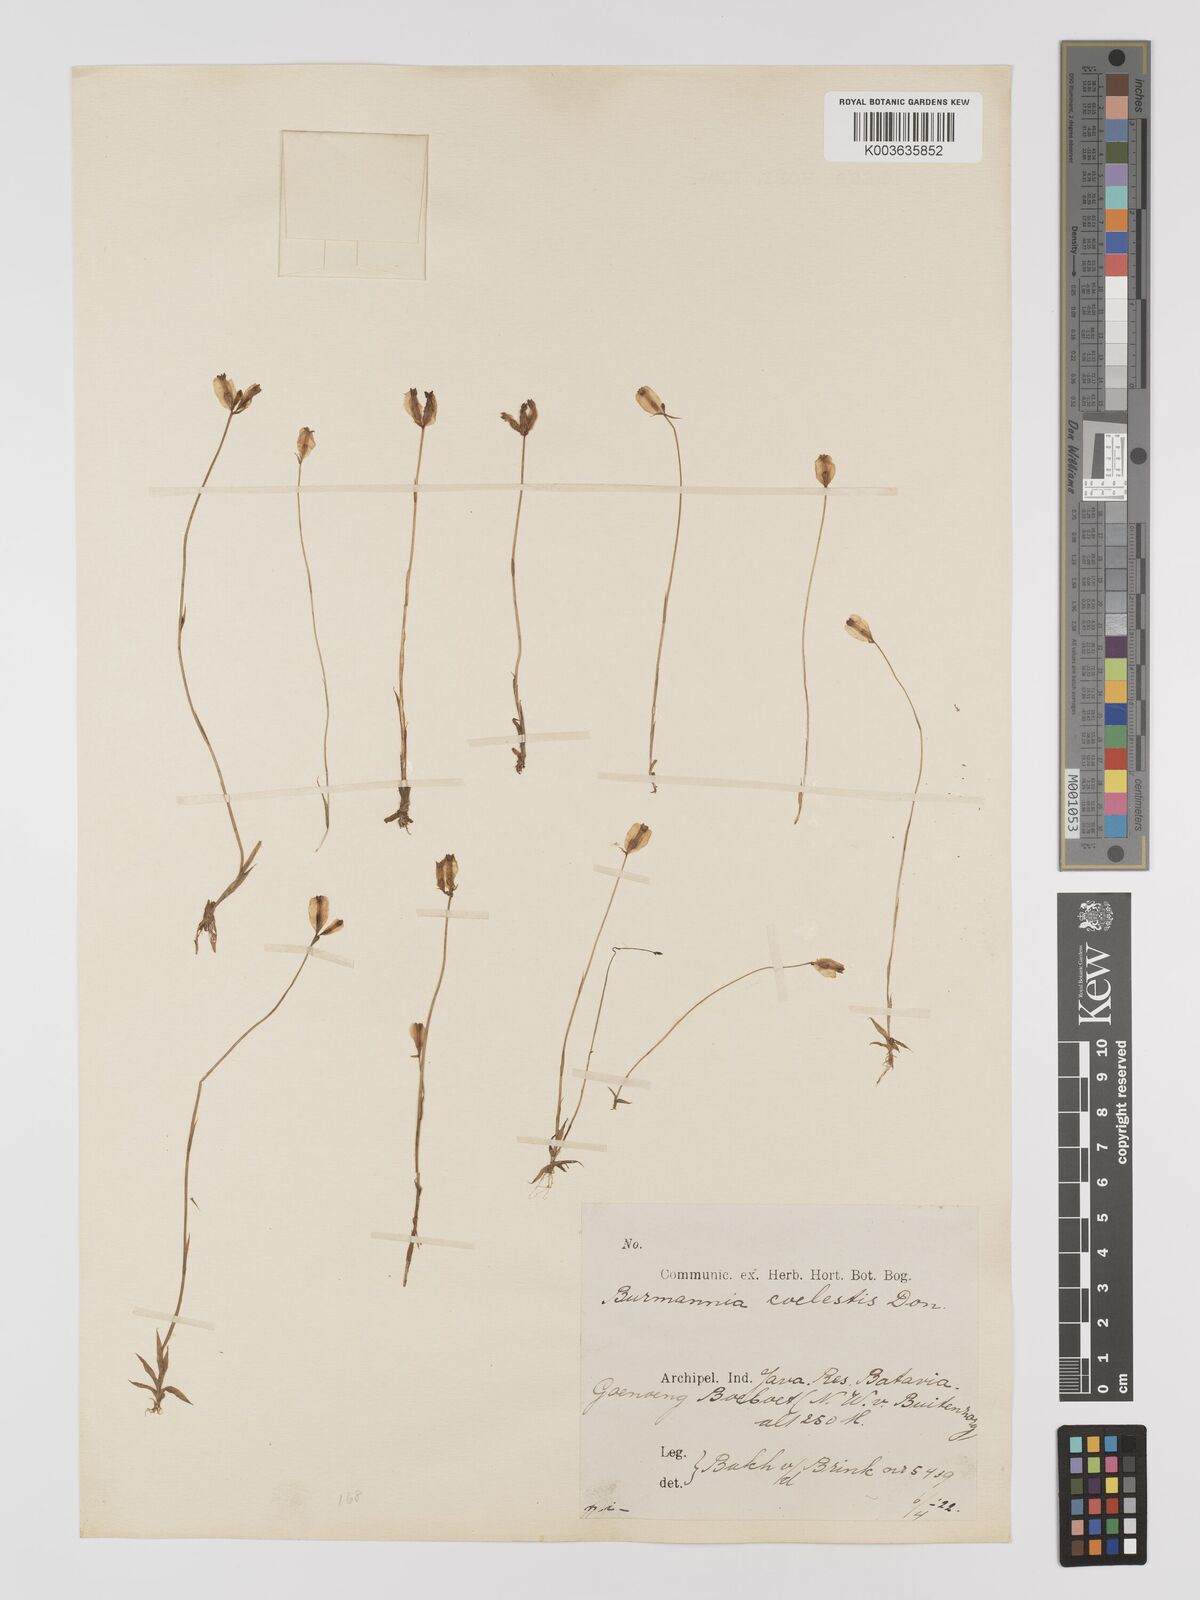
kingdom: Plantae
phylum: Tracheophyta
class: Liliopsida
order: Dioscoreales
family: Burmanniaceae
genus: Burmannia
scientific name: Burmannia coelestis
